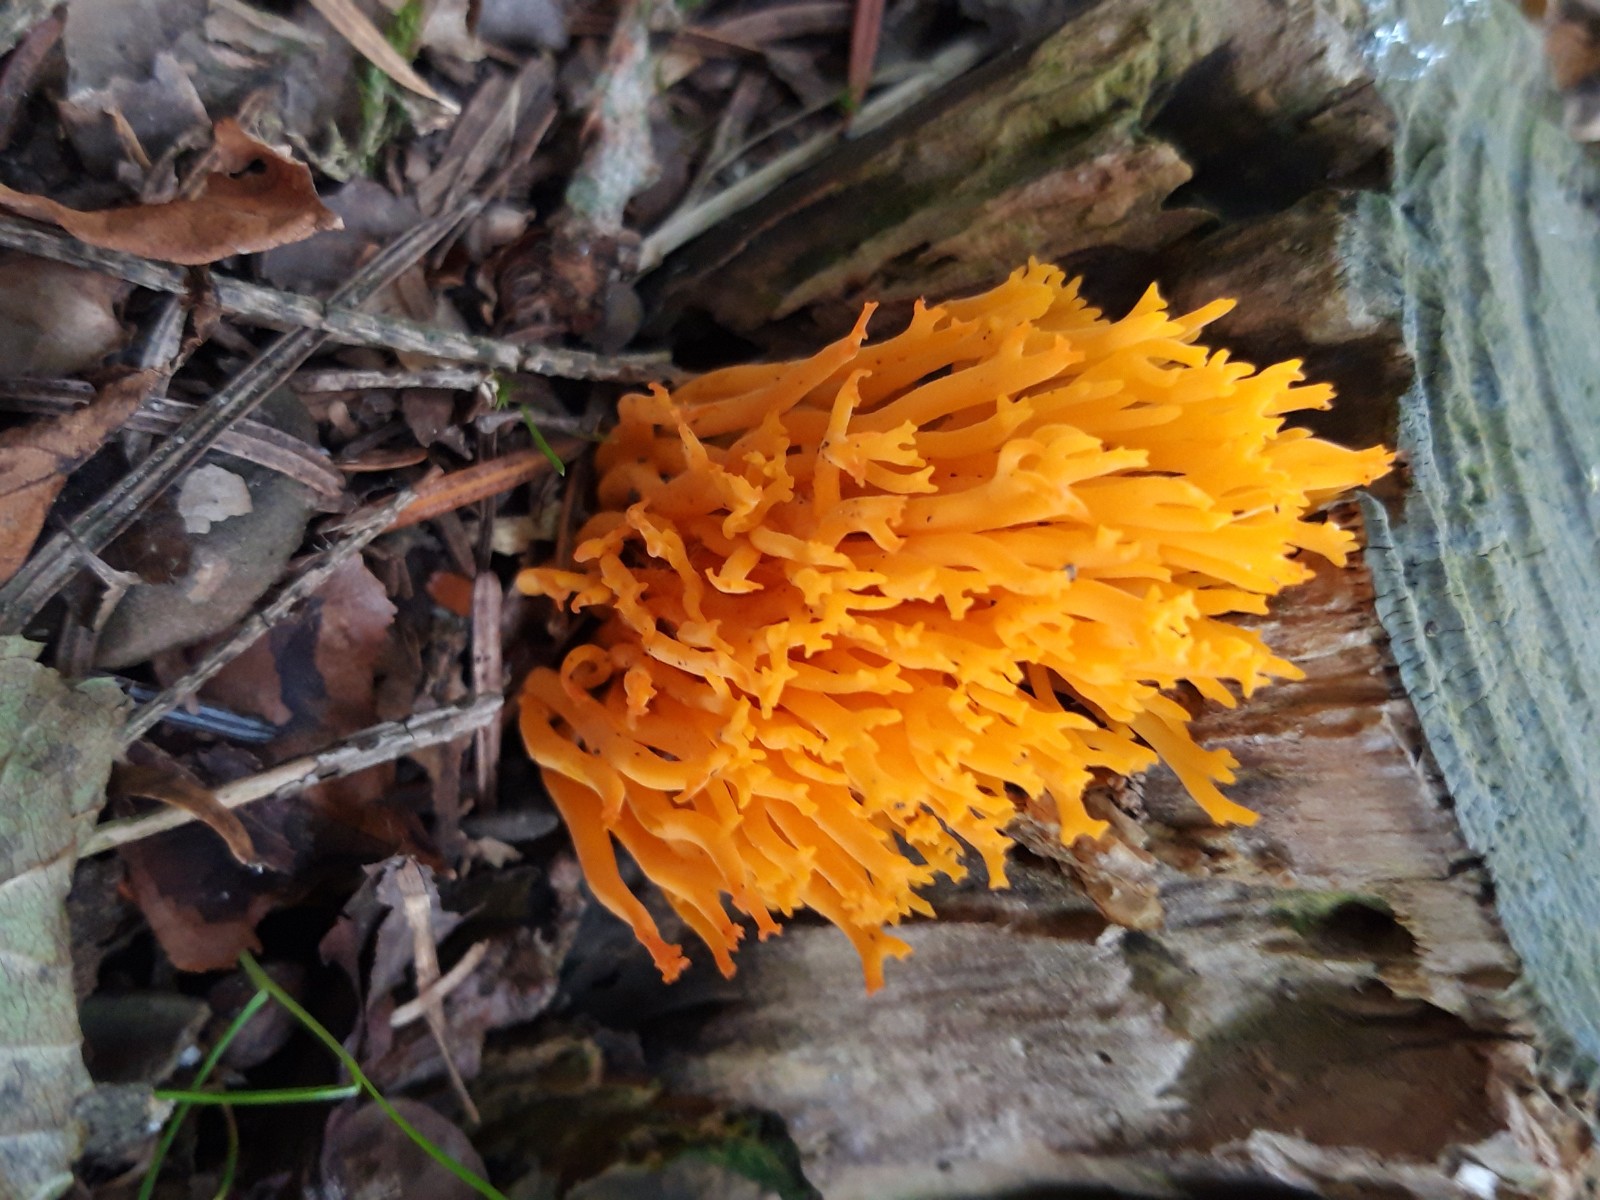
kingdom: Fungi
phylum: Basidiomycota
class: Dacrymycetes
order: Dacrymycetales
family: Dacrymycetaceae
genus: Calocera
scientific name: Calocera viscosa
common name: almindelig guldgaffel
